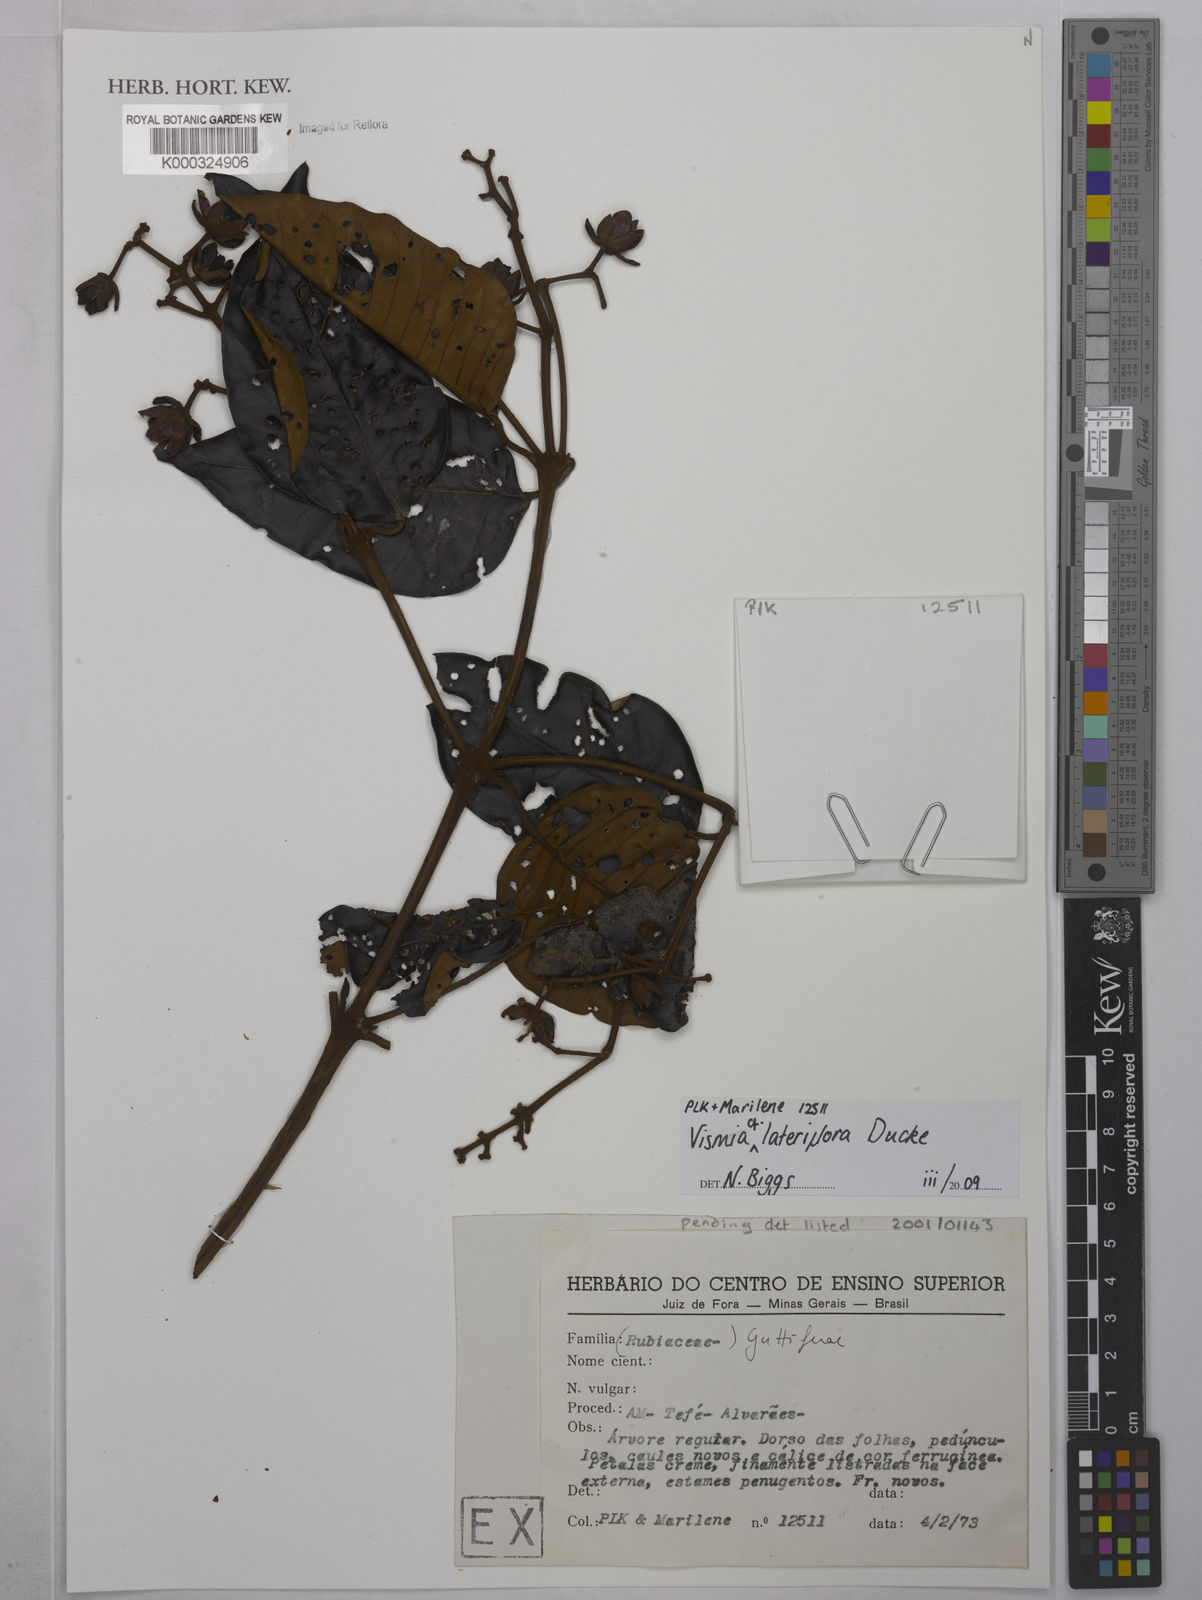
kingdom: Plantae
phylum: Tracheophyta
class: Magnoliopsida
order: Malpighiales
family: Hypericaceae
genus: Vismia
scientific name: Vismia lateriflora
